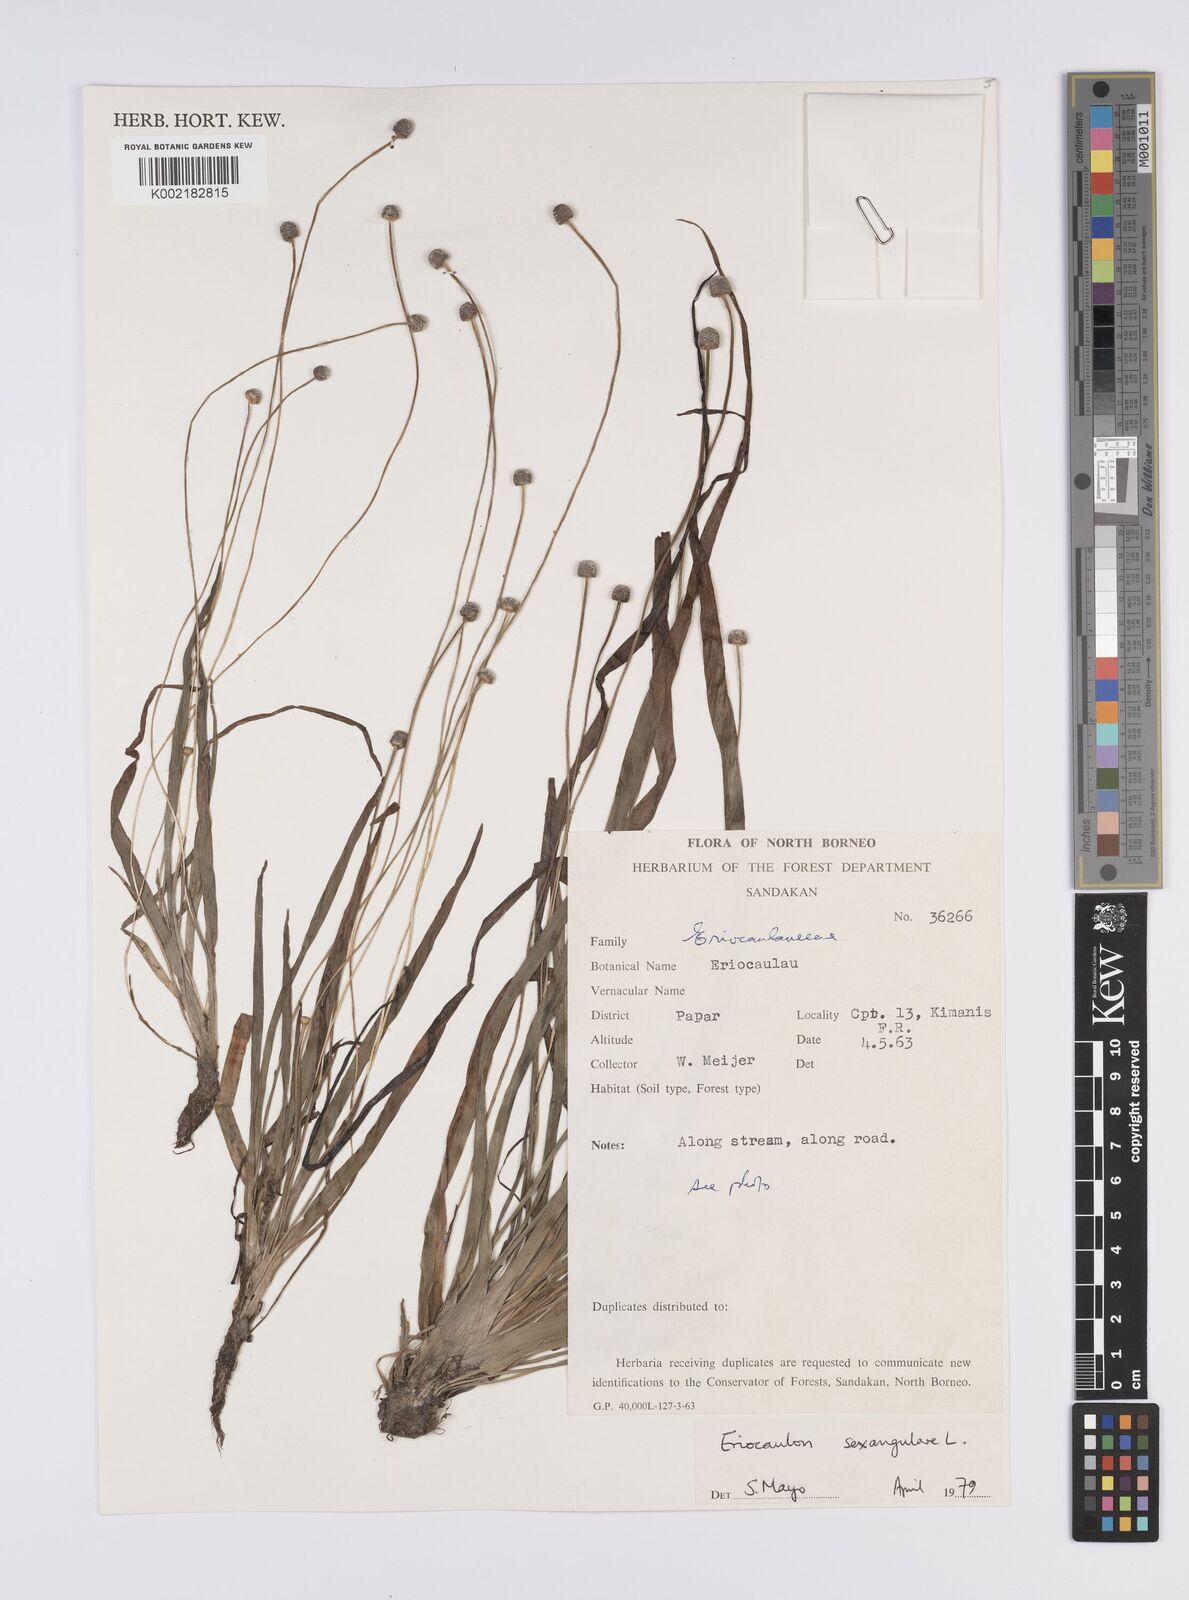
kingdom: Plantae
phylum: Tracheophyta
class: Liliopsida
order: Poales
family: Eriocaulaceae
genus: Eriocaulon
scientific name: Eriocaulon sexangulare
